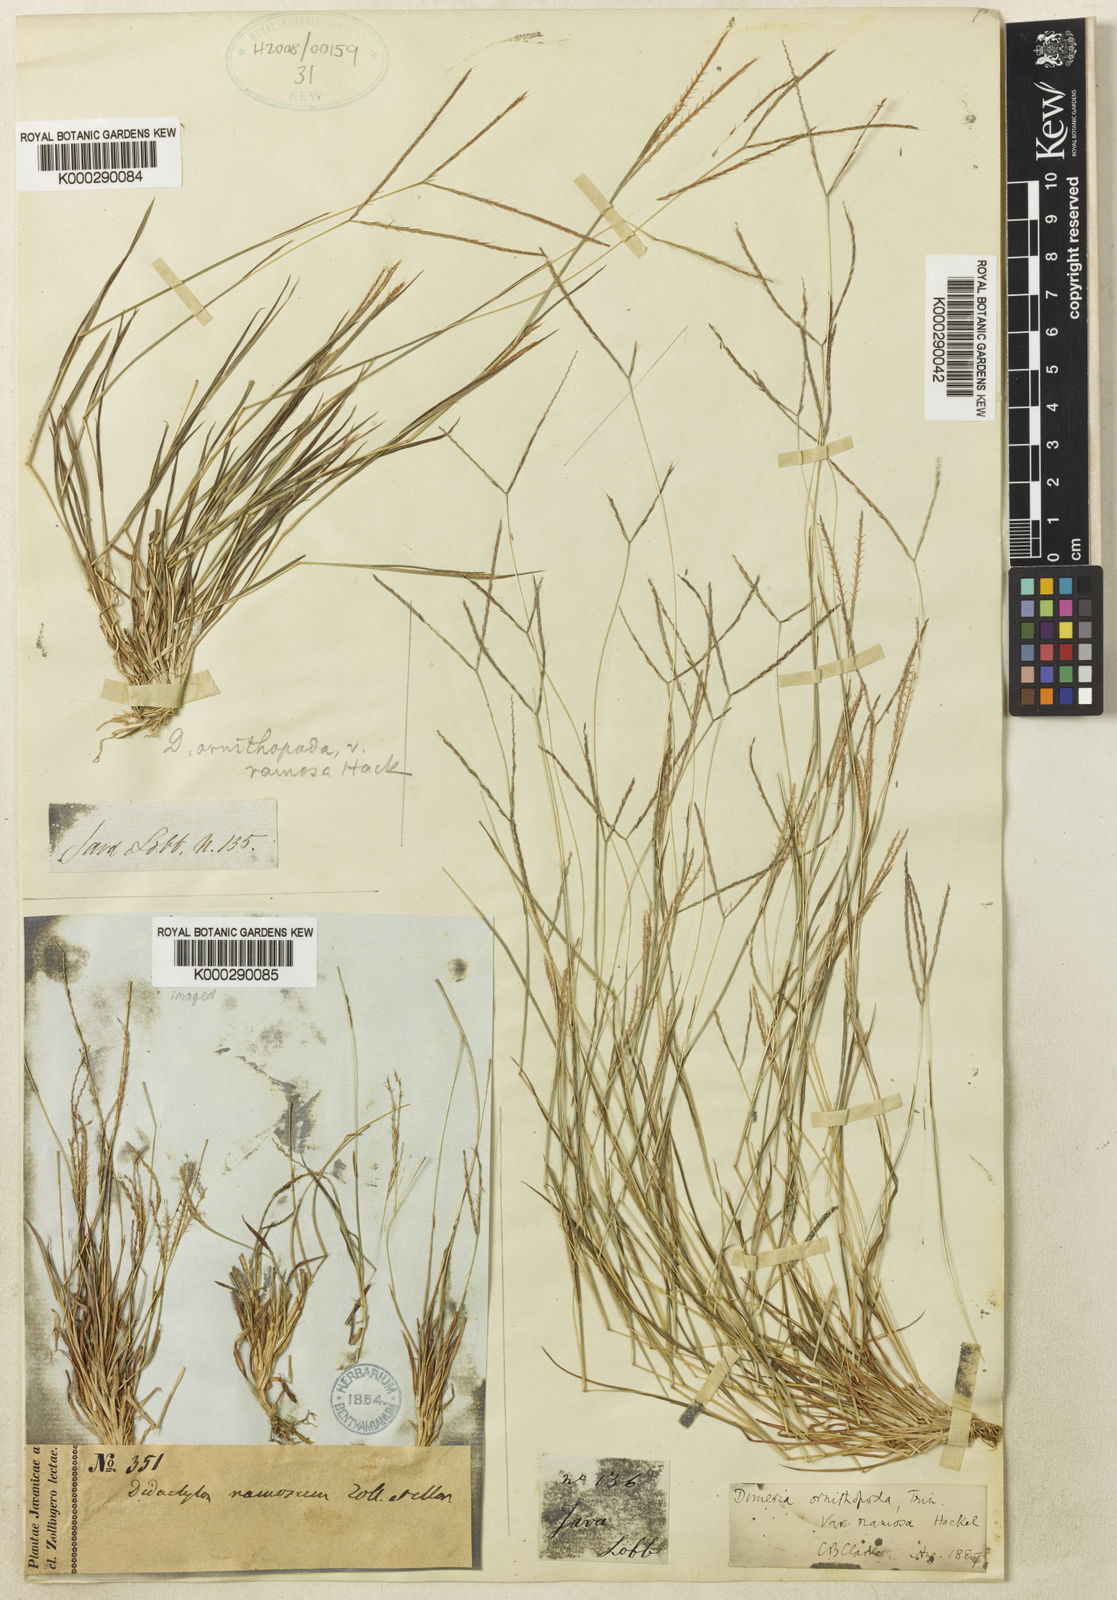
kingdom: Plantae
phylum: Tracheophyta
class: Liliopsida
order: Poales
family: Poaceae
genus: Dimeria
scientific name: Dimeria ornithopoda
